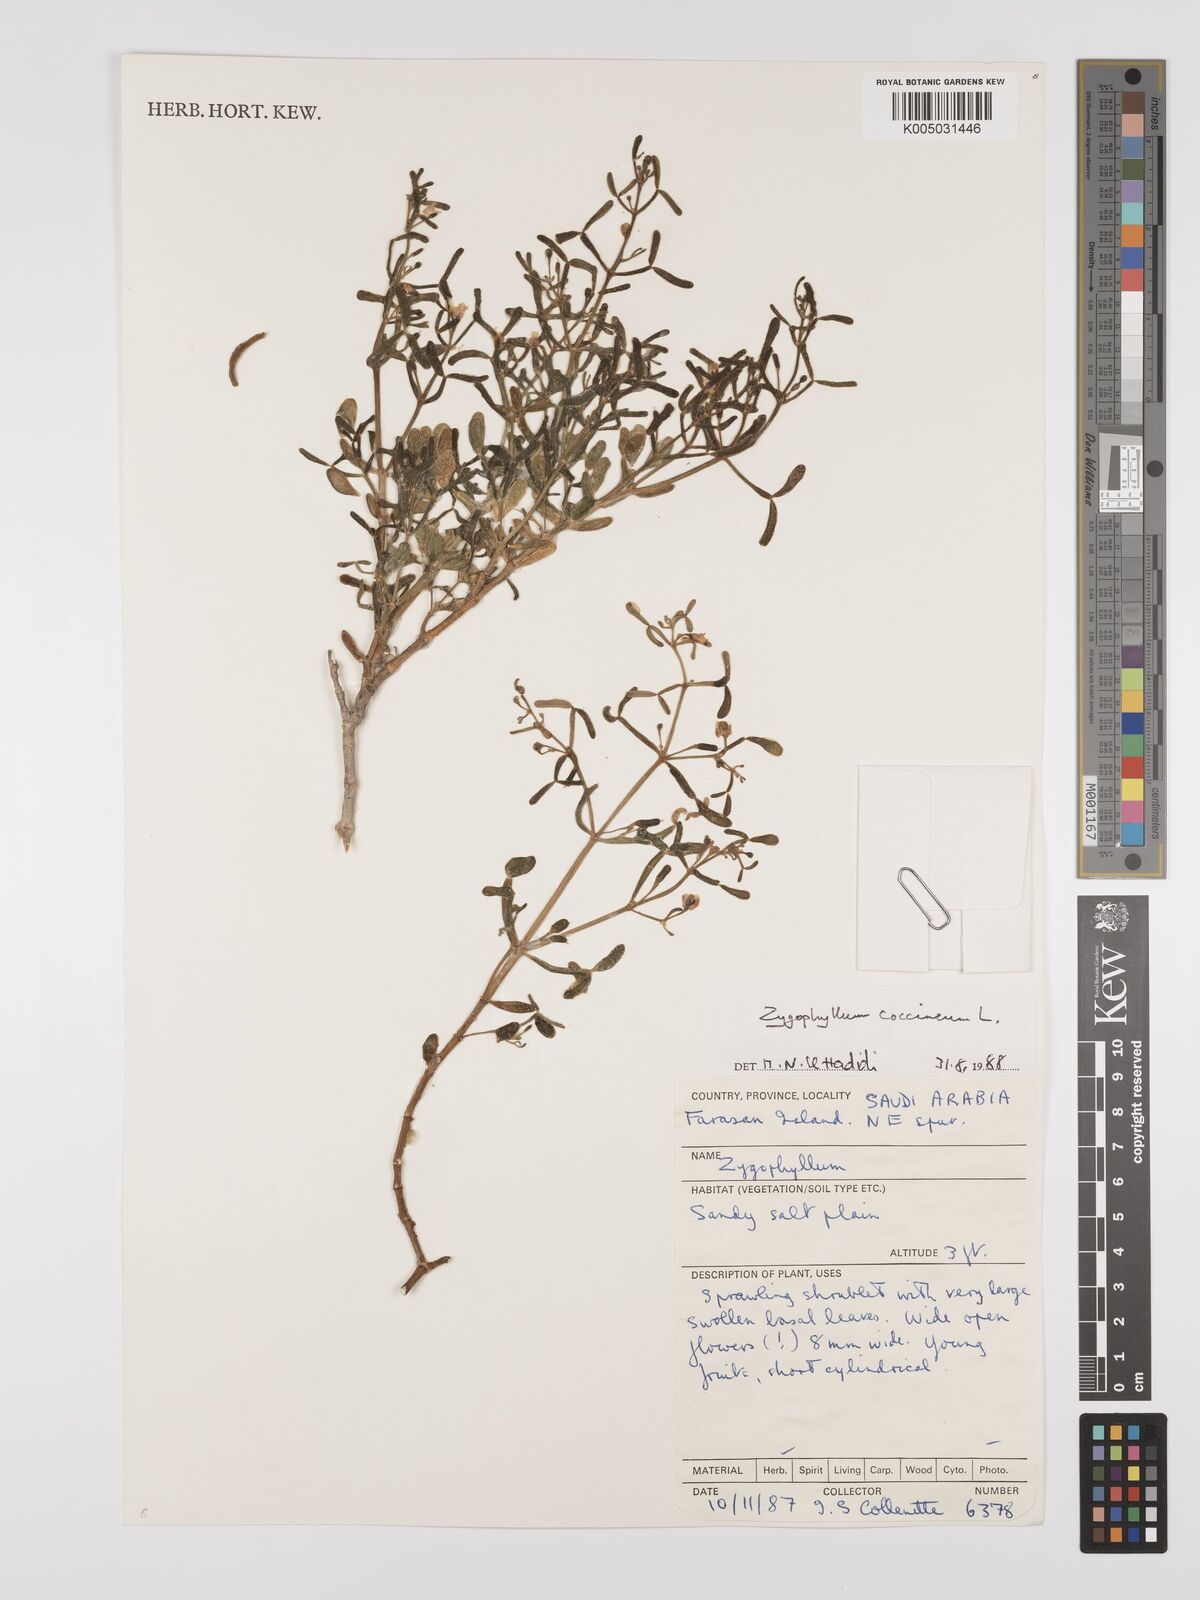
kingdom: Plantae
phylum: Tracheophyta
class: Magnoliopsida
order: Zygophyllales
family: Zygophyllaceae
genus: Zygophyllum
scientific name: Zygophyllum
